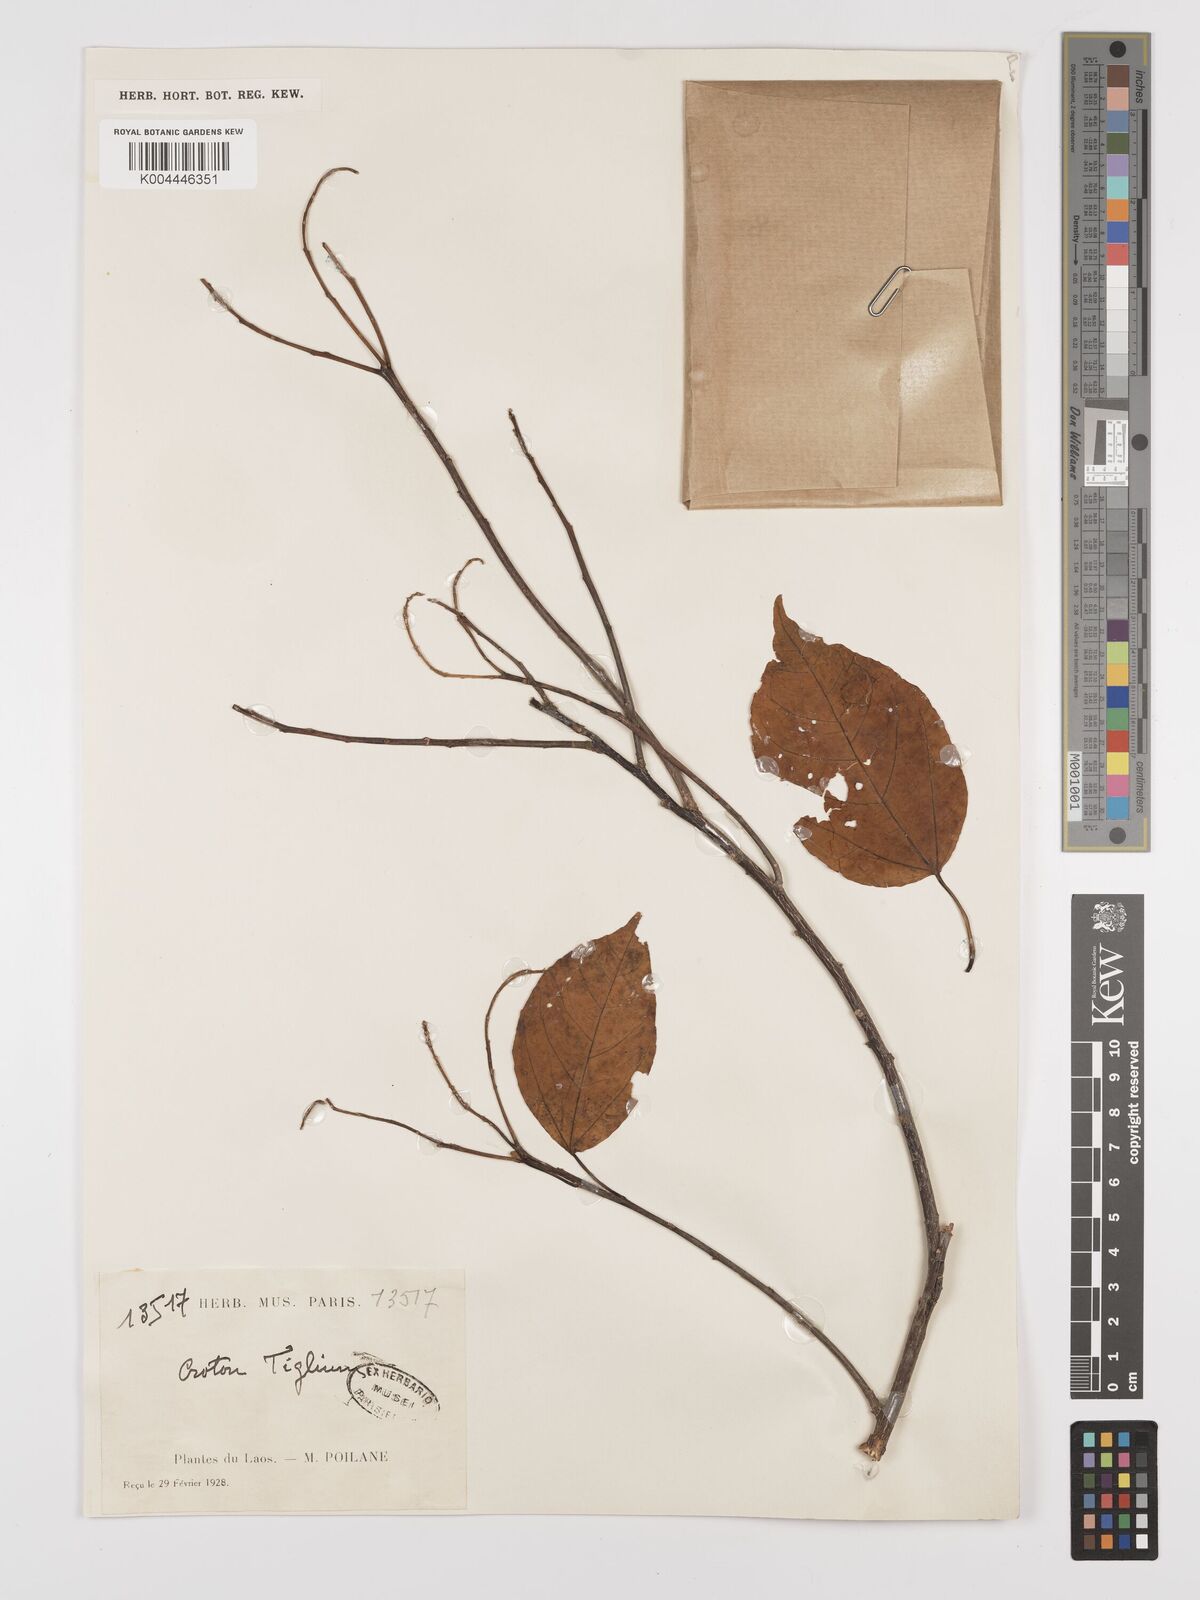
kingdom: Plantae
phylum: Tracheophyta
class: Magnoliopsida
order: Malpighiales
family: Euphorbiaceae
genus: Croton
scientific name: Croton tiglium
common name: Purging croton
